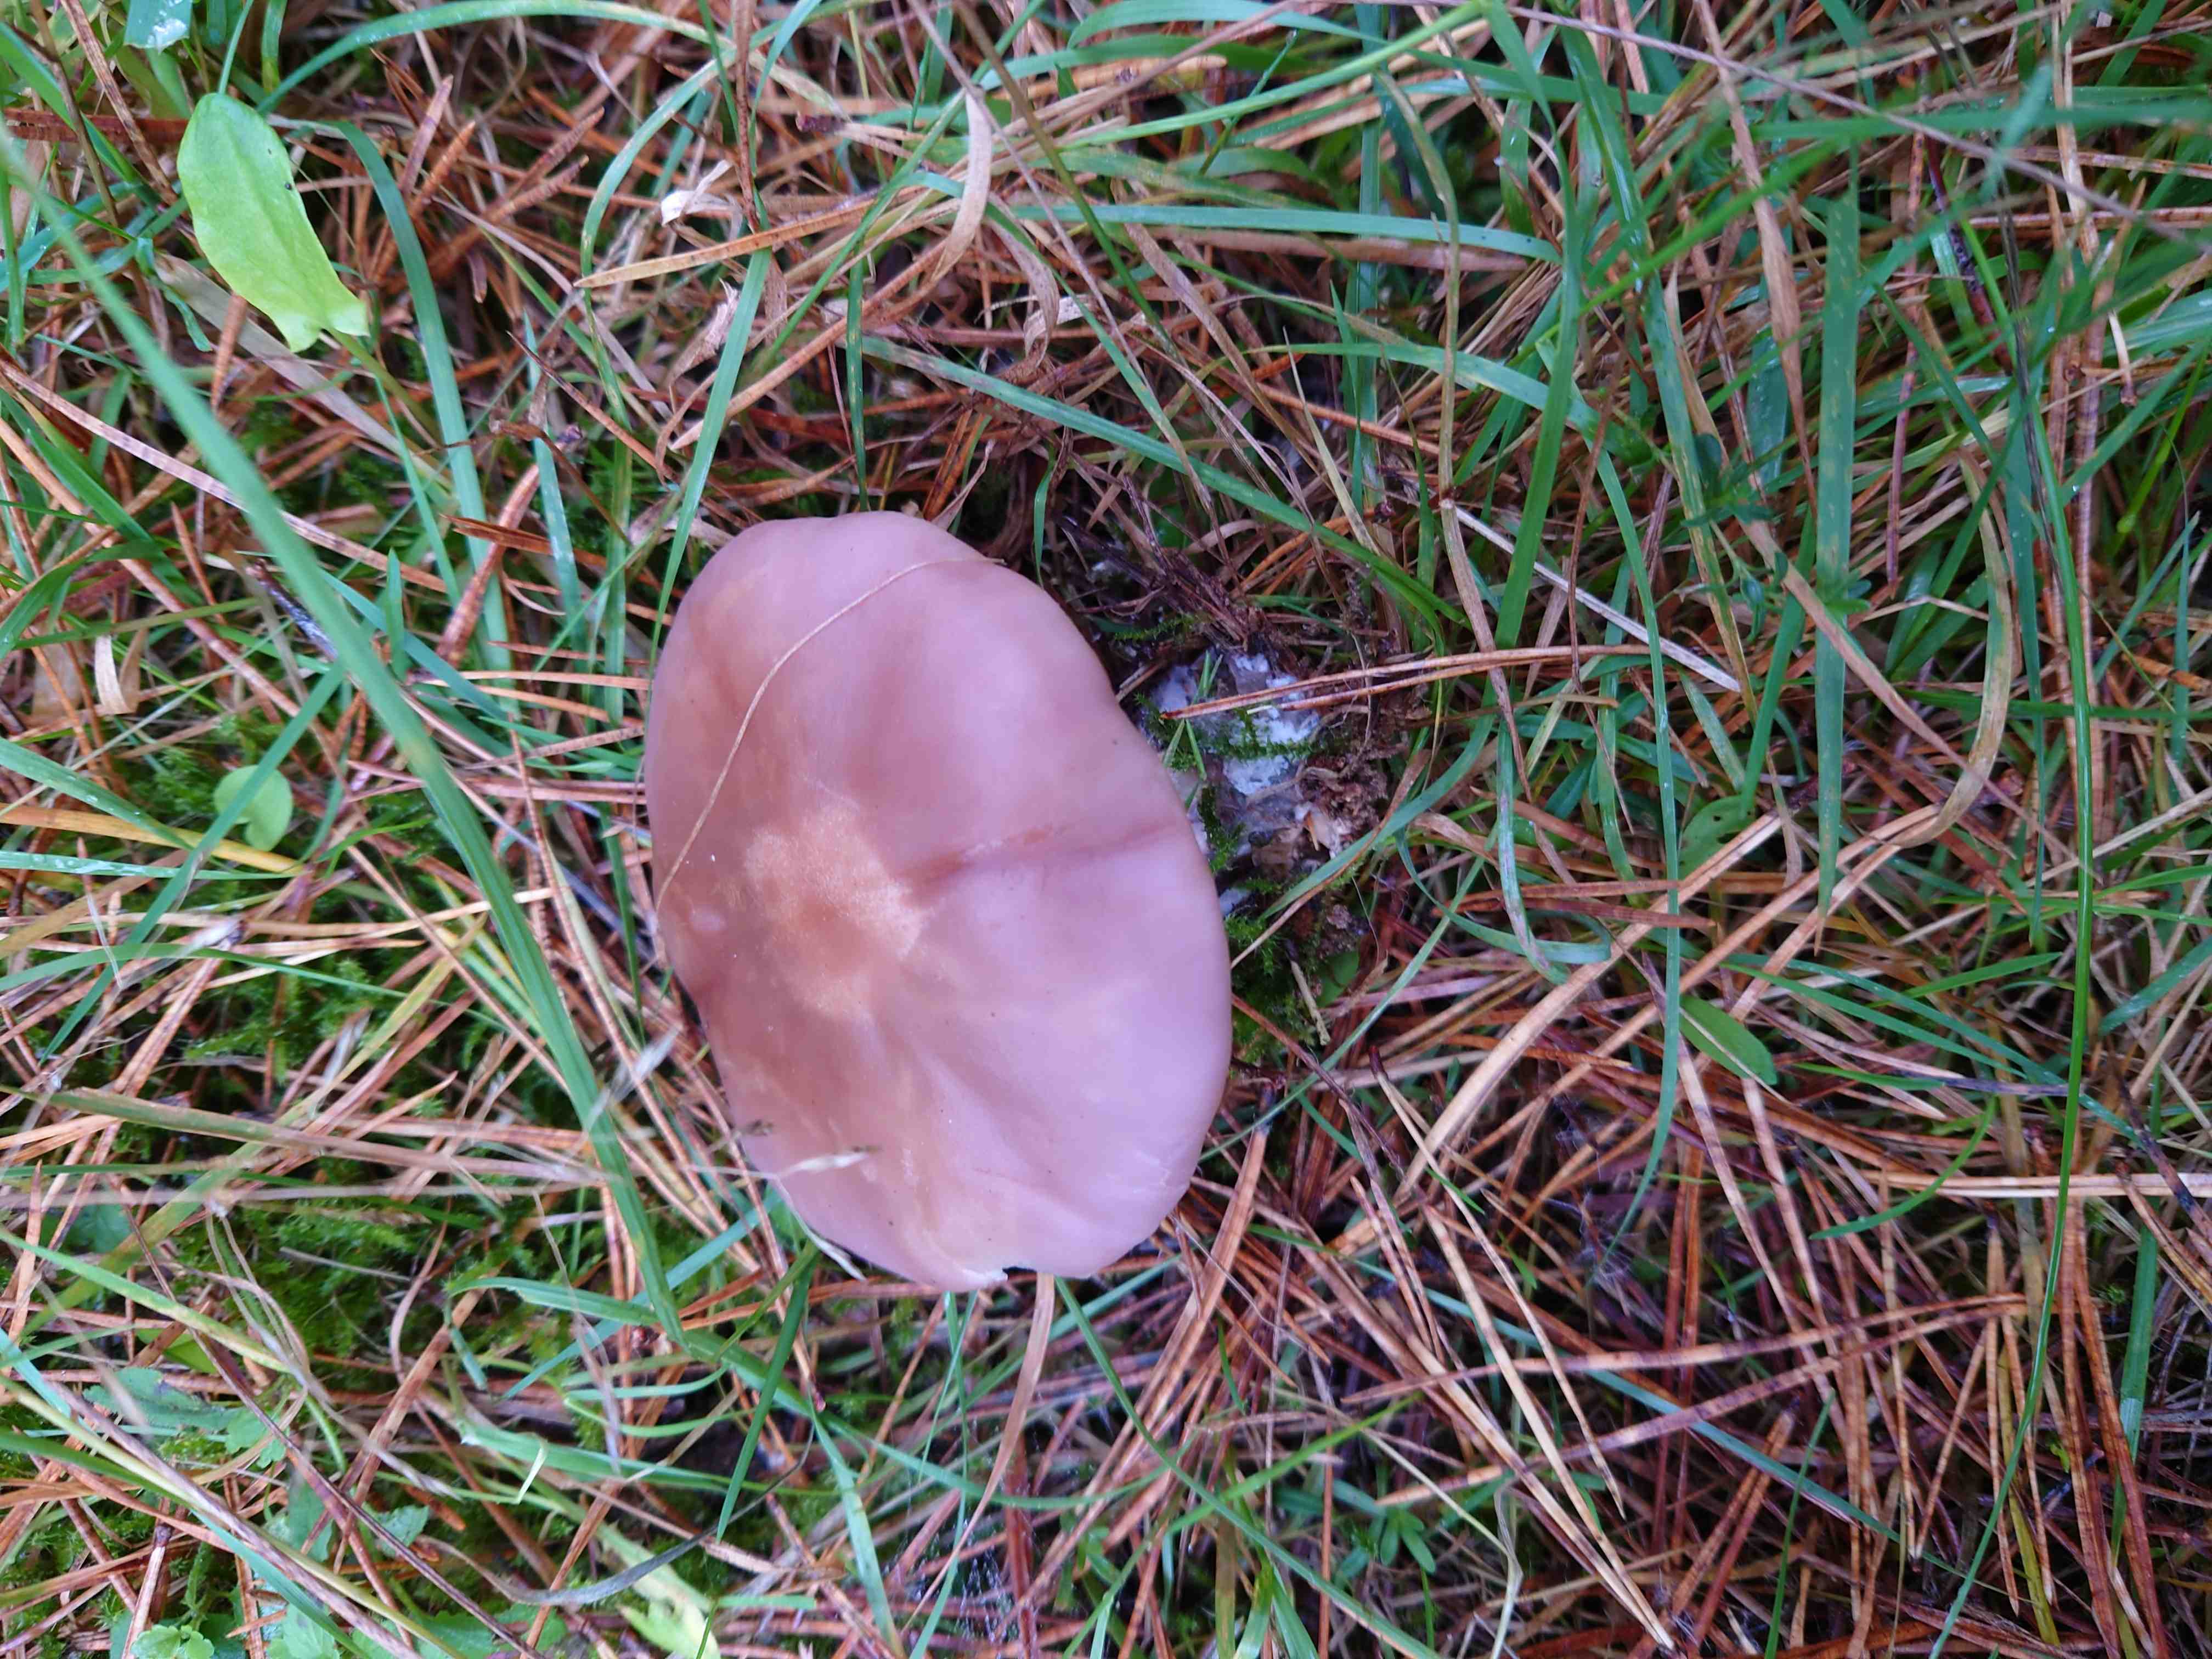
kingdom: Fungi
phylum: Basidiomycota
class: Agaricomycetes
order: Agaricales
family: Tricholomataceae
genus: Lepista
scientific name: Lepista lilacea
